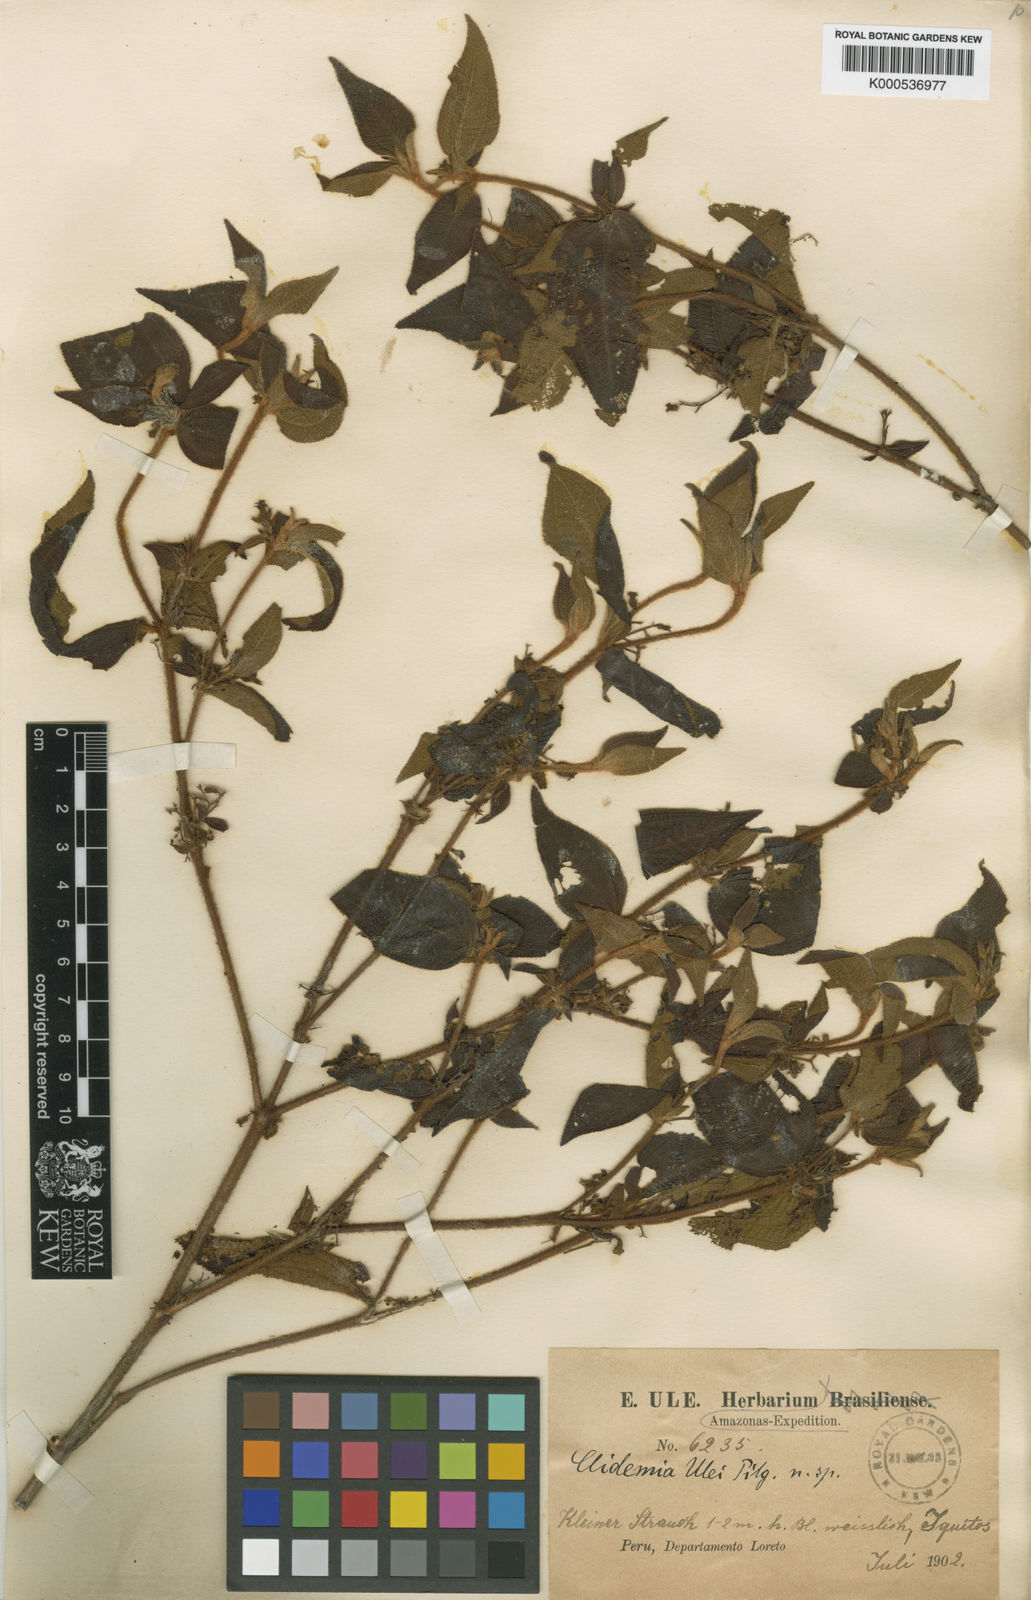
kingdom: Plantae
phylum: Tracheophyta
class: Magnoliopsida
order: Myrtales
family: Melastomataceae
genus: Miconia
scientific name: Miconia ernstulei
